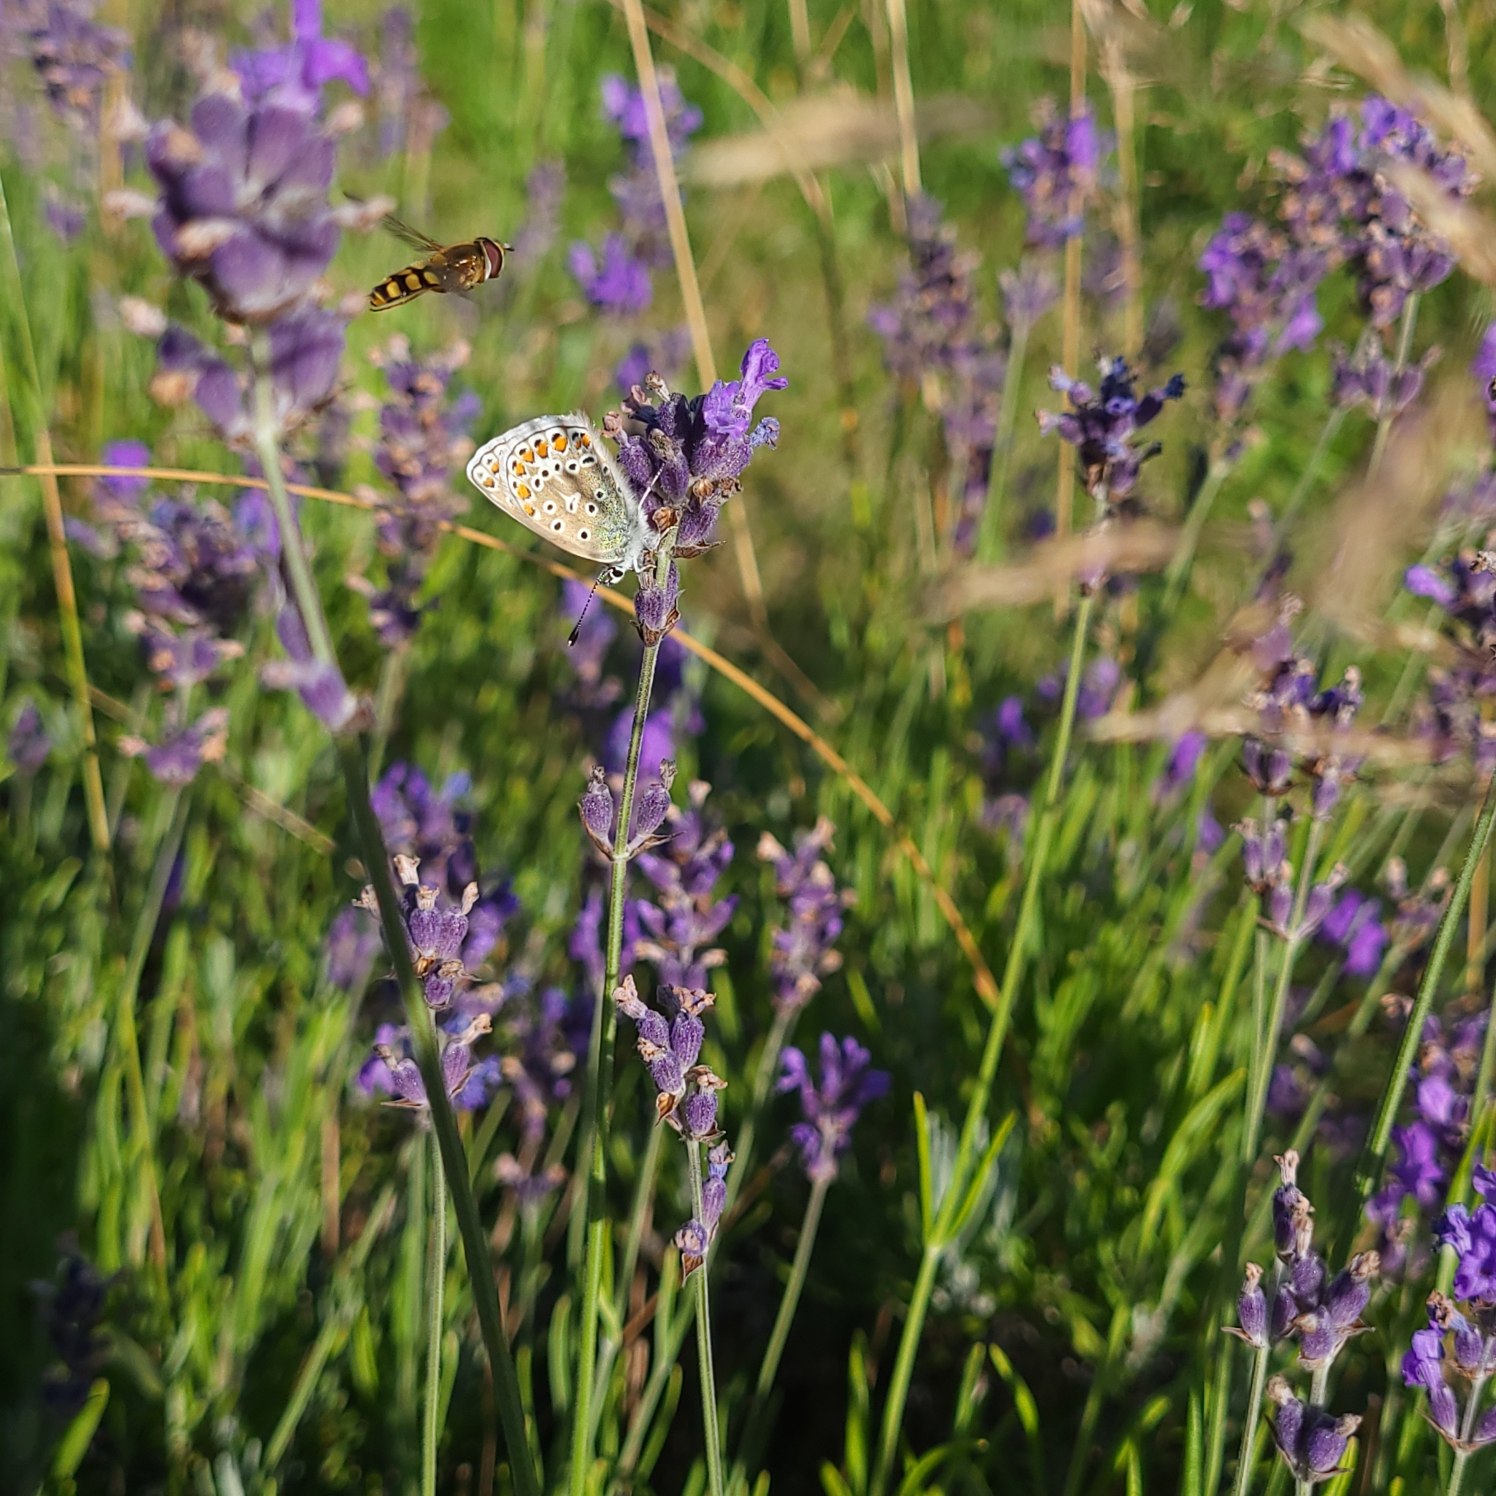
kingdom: Animalia
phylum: Arthropoda
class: Insecta
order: Lepidoptera
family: Lycaenidae
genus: Polyommatus
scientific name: Polyommatus icarus
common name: Almindelig blåfugl
